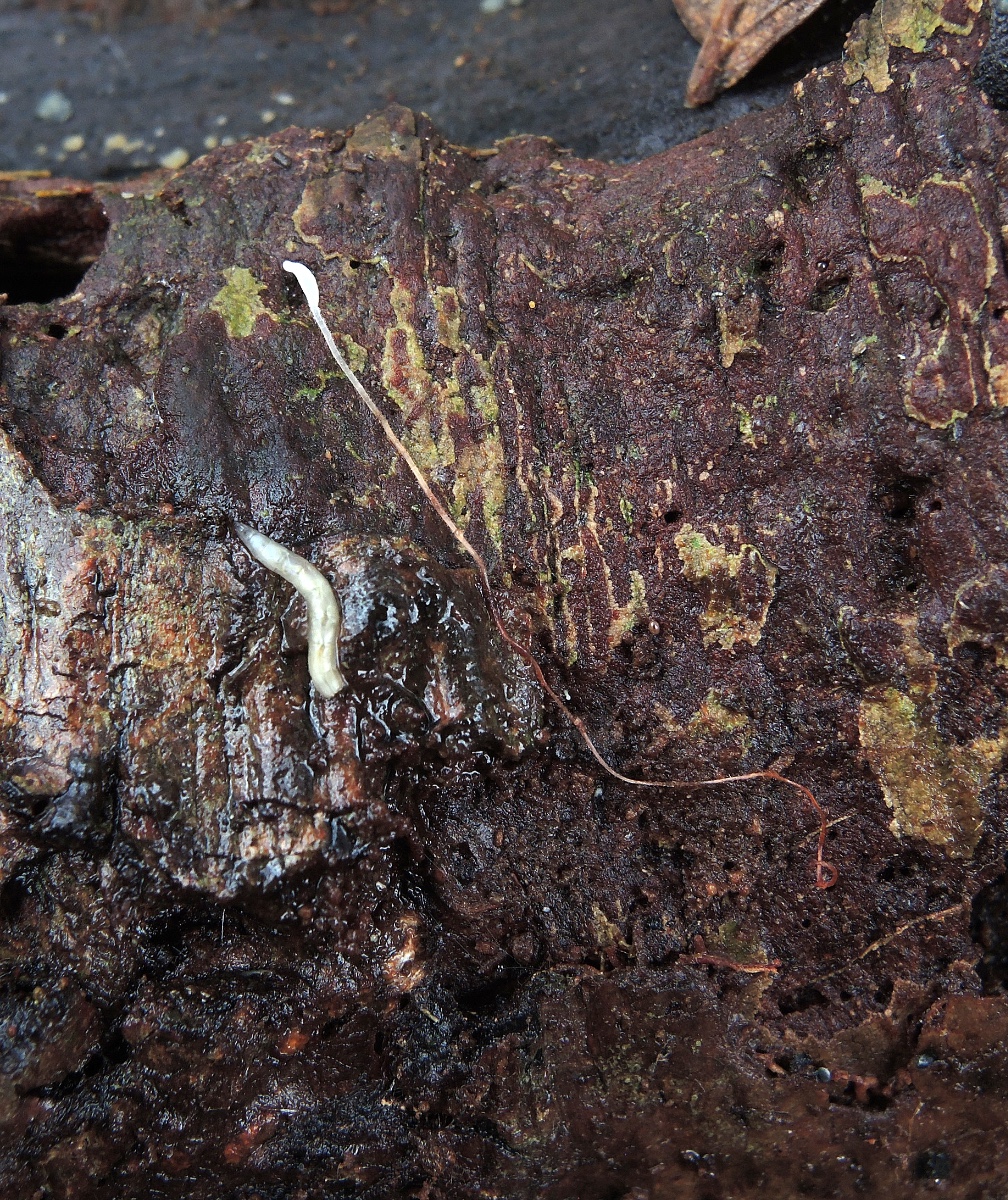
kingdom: Fungi
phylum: Basidiomycota
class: Agaricomycetes
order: Agaricales
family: Typhulaceae
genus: Typhula
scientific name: Typhula erythropus
